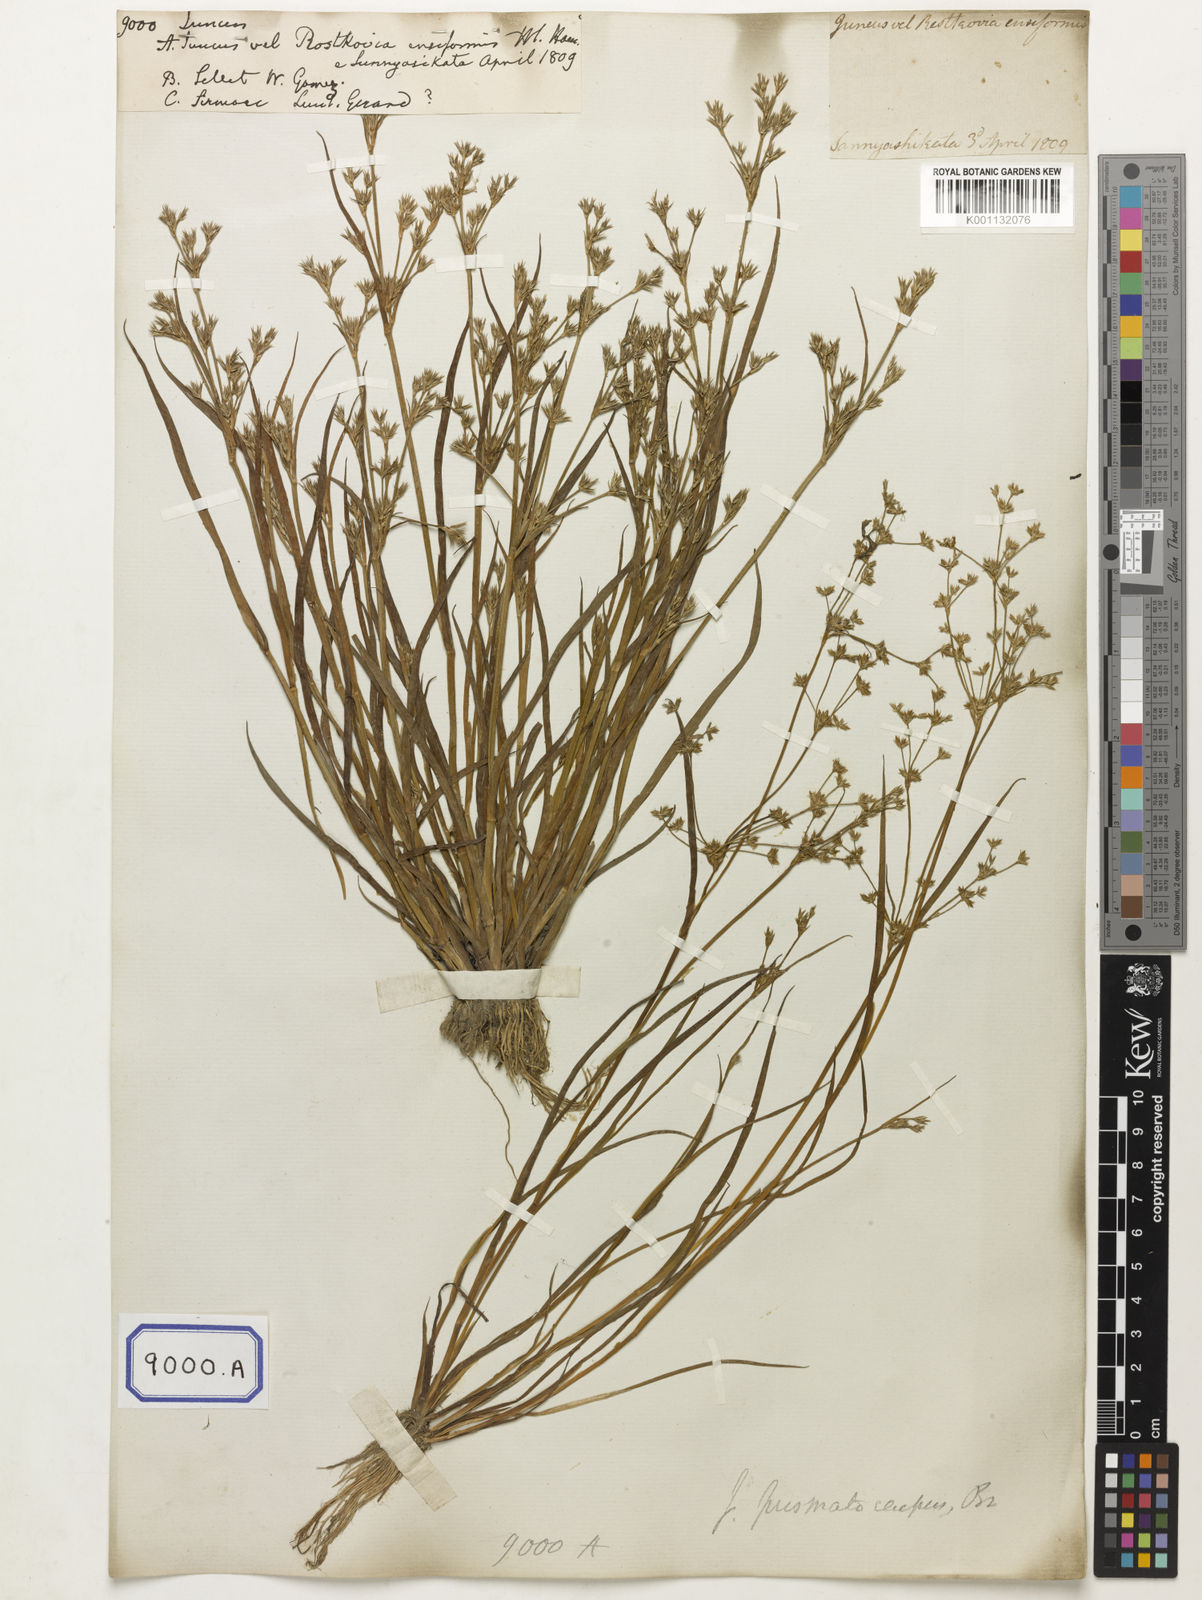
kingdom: Plantae
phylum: Tracheophyta
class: Liliopsida
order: Poales
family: Juncaceae
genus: Juncus
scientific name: Juncus
